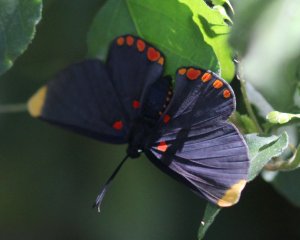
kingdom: Animalia
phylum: Arthropoda
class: Insecta
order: Lepidoptera
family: Lycaenidae
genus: Melanis
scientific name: Melanis pixe
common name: Red-bordered Pixie
